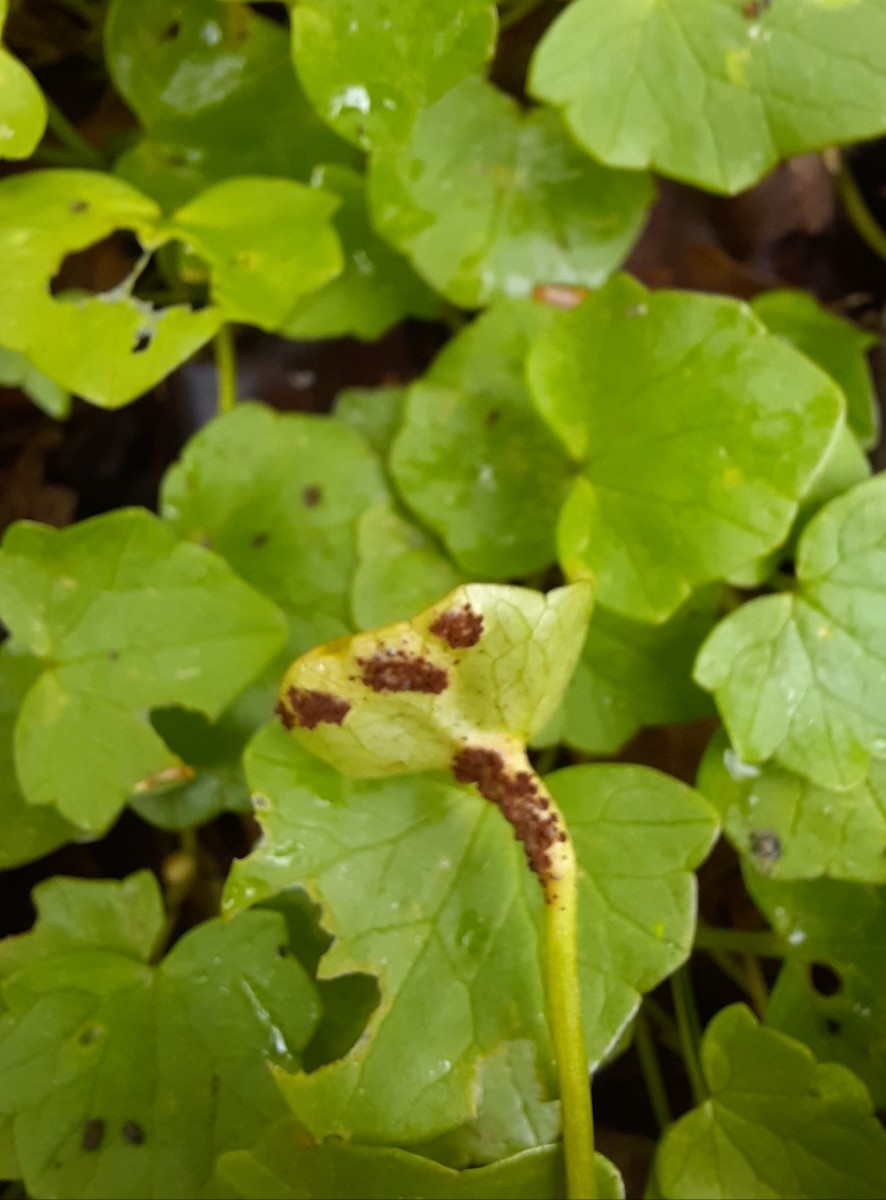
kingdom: Fungi
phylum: Basidiomycota
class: Pucciniomycetes
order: Pucciniales
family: Pucciniaceae
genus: Uromyces
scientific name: Uromyces ficariae
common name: vorterod-encellerust
